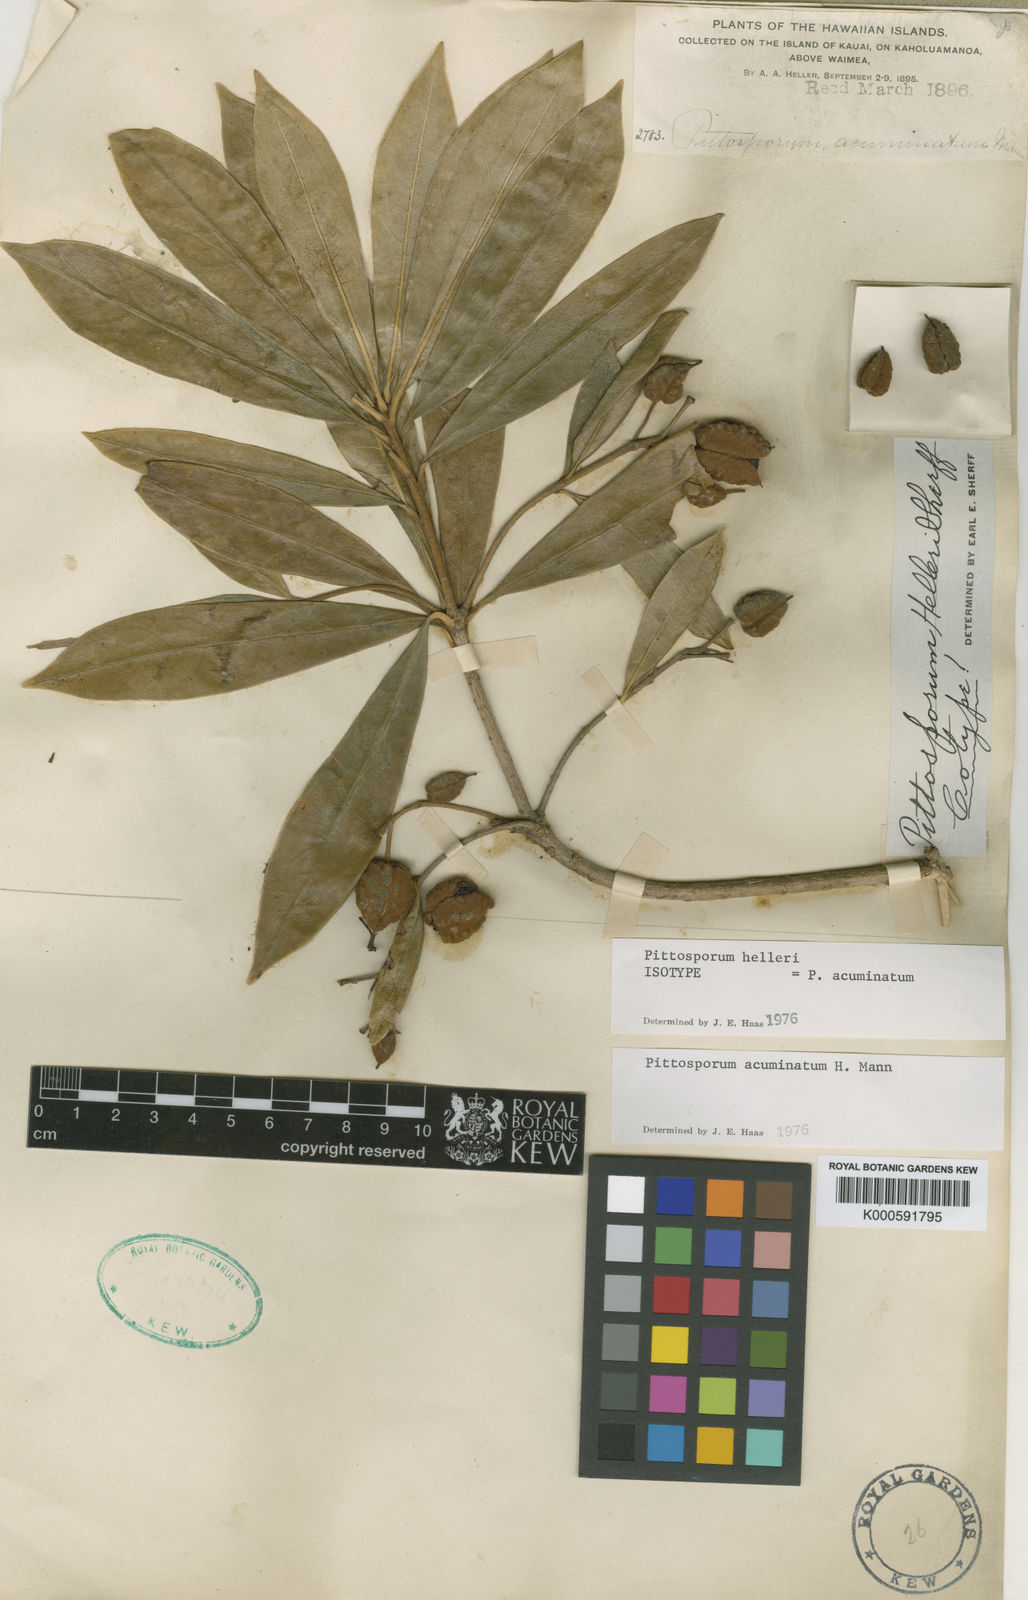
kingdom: Plantae
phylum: Tracheophyta
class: Magnoliopsida
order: Apiales
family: Pittosporaceae
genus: Pittosporum
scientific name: Pittosporum glabrum
